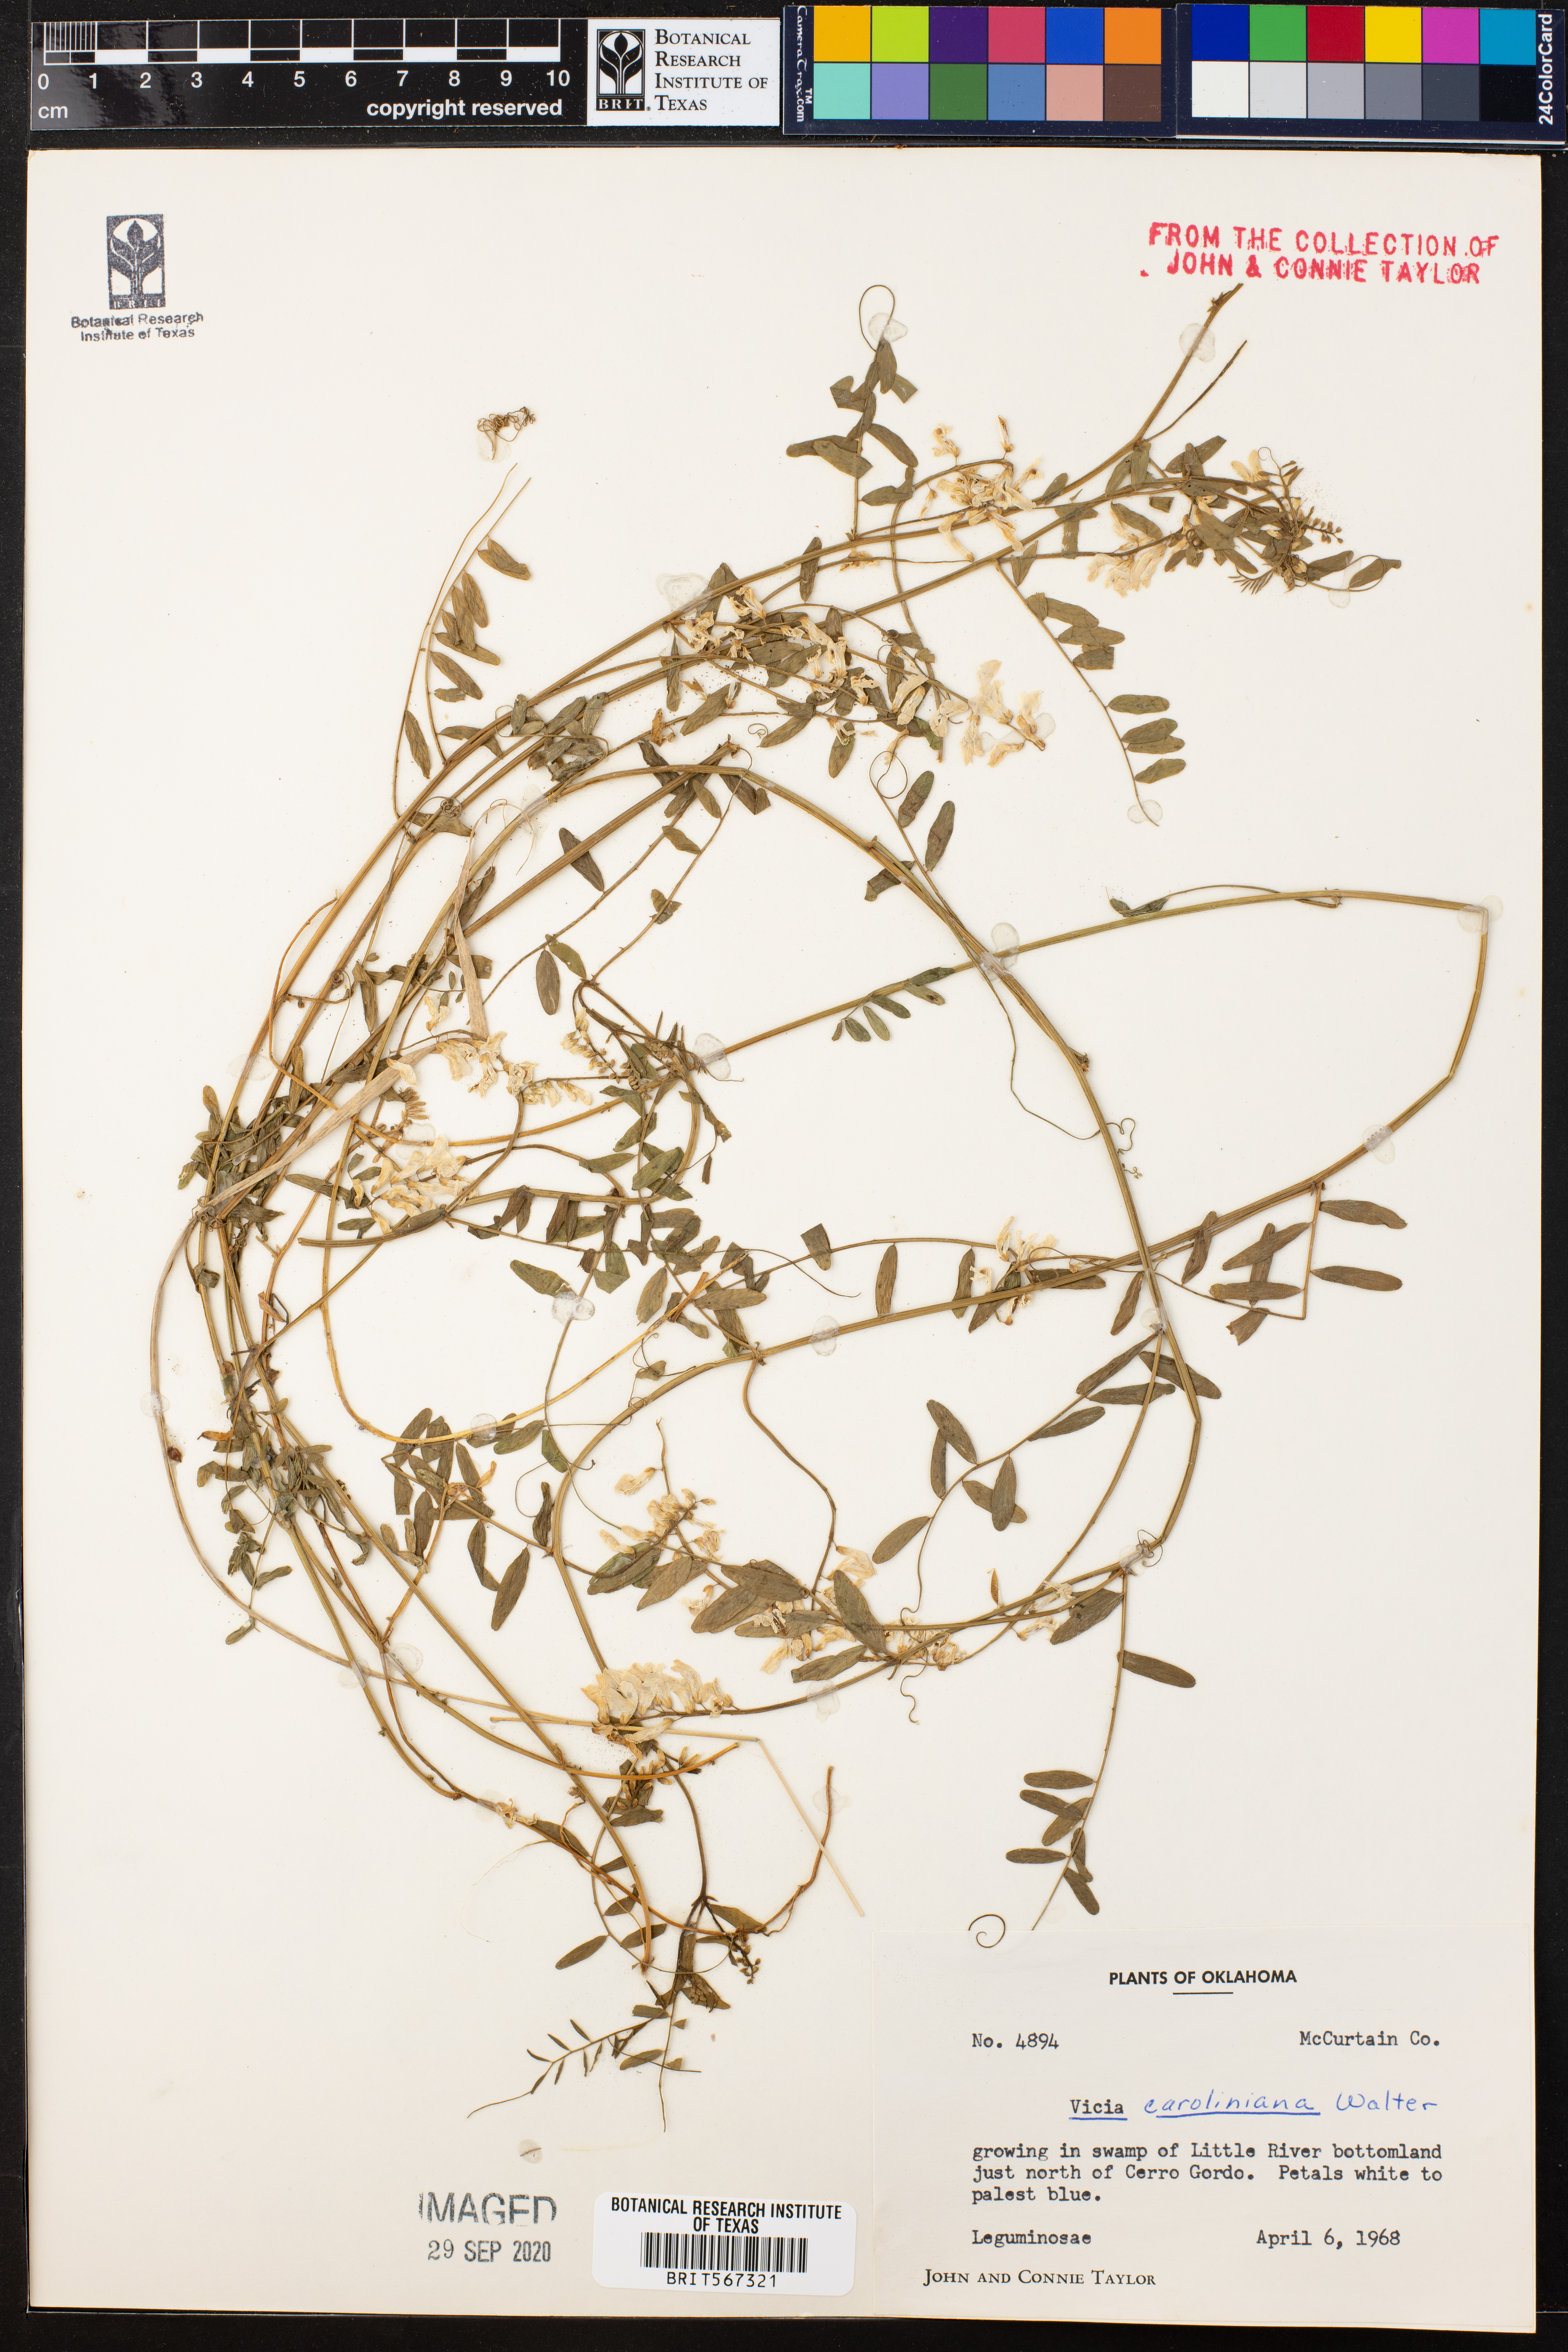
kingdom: Plantae
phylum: Tracheophyta
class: Magnoliopsida
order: Fabales
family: Fabaceae
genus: Vicia
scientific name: Vicia caroliniana
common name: Carolina vetch
